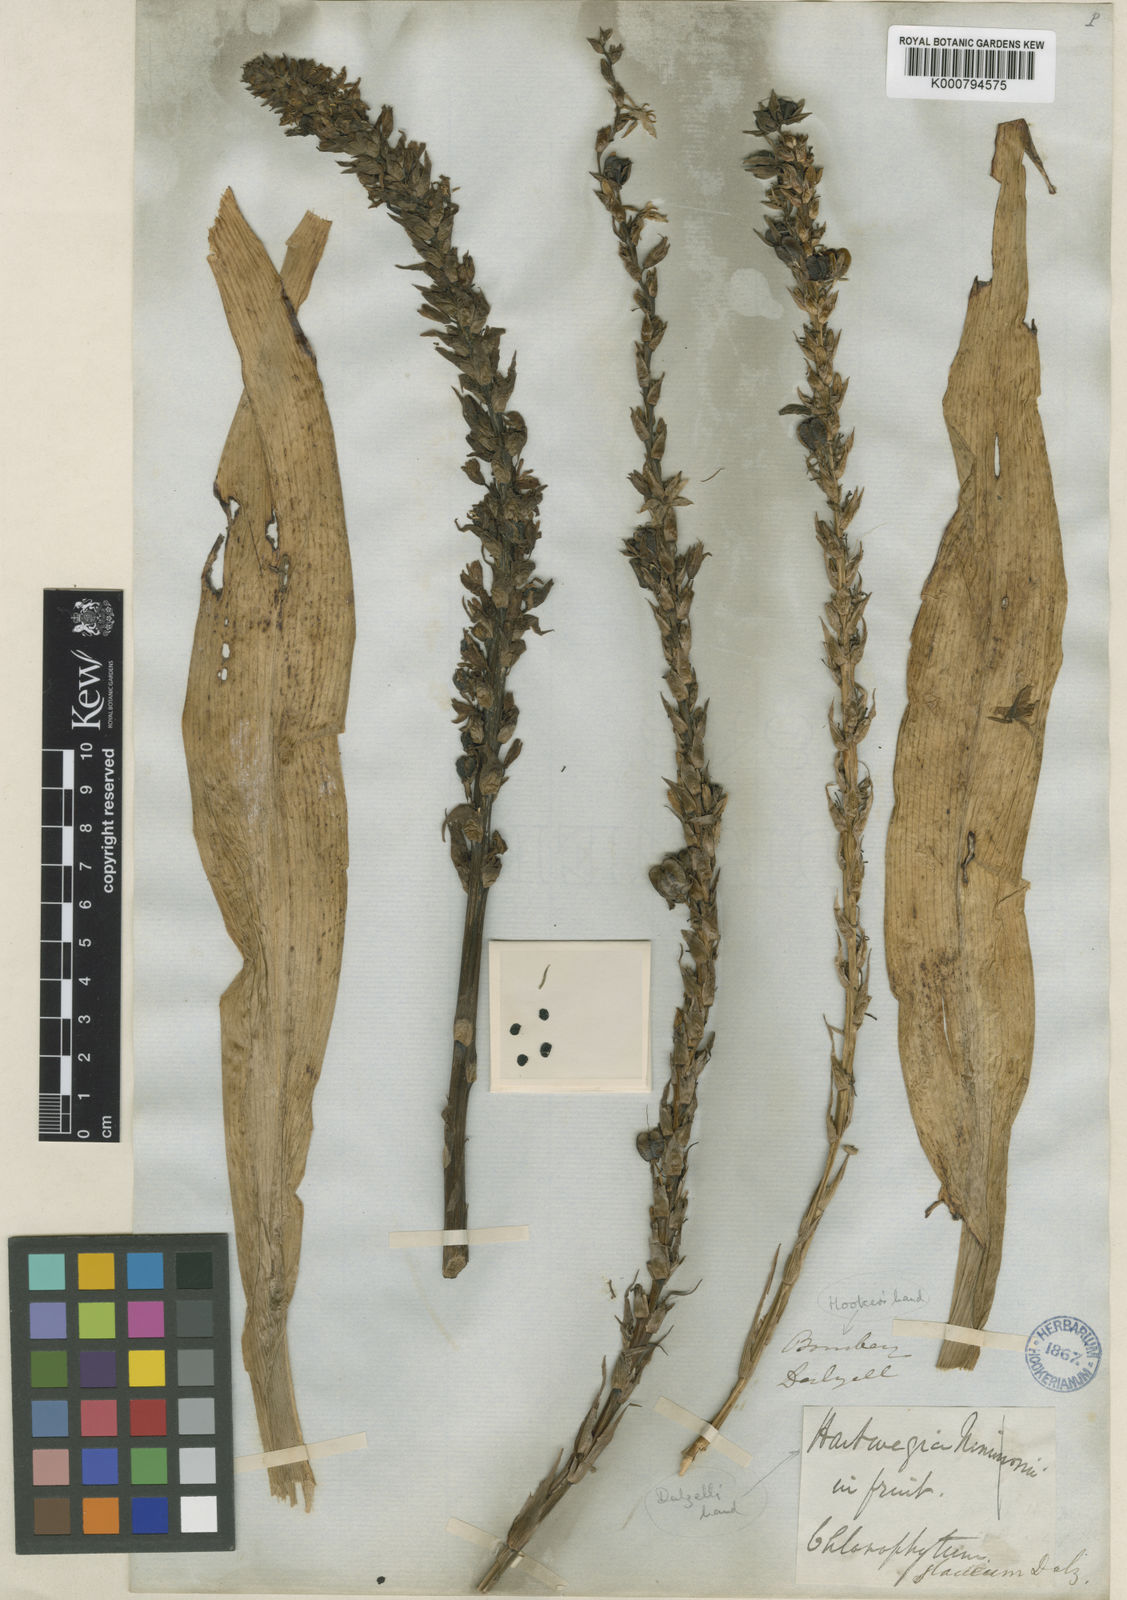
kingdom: Plantae
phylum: Tracheophyta
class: Liliopsida
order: Asparagales
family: Asparagaceae
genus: Chlorophytum
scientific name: Chlorophytum glaucum
